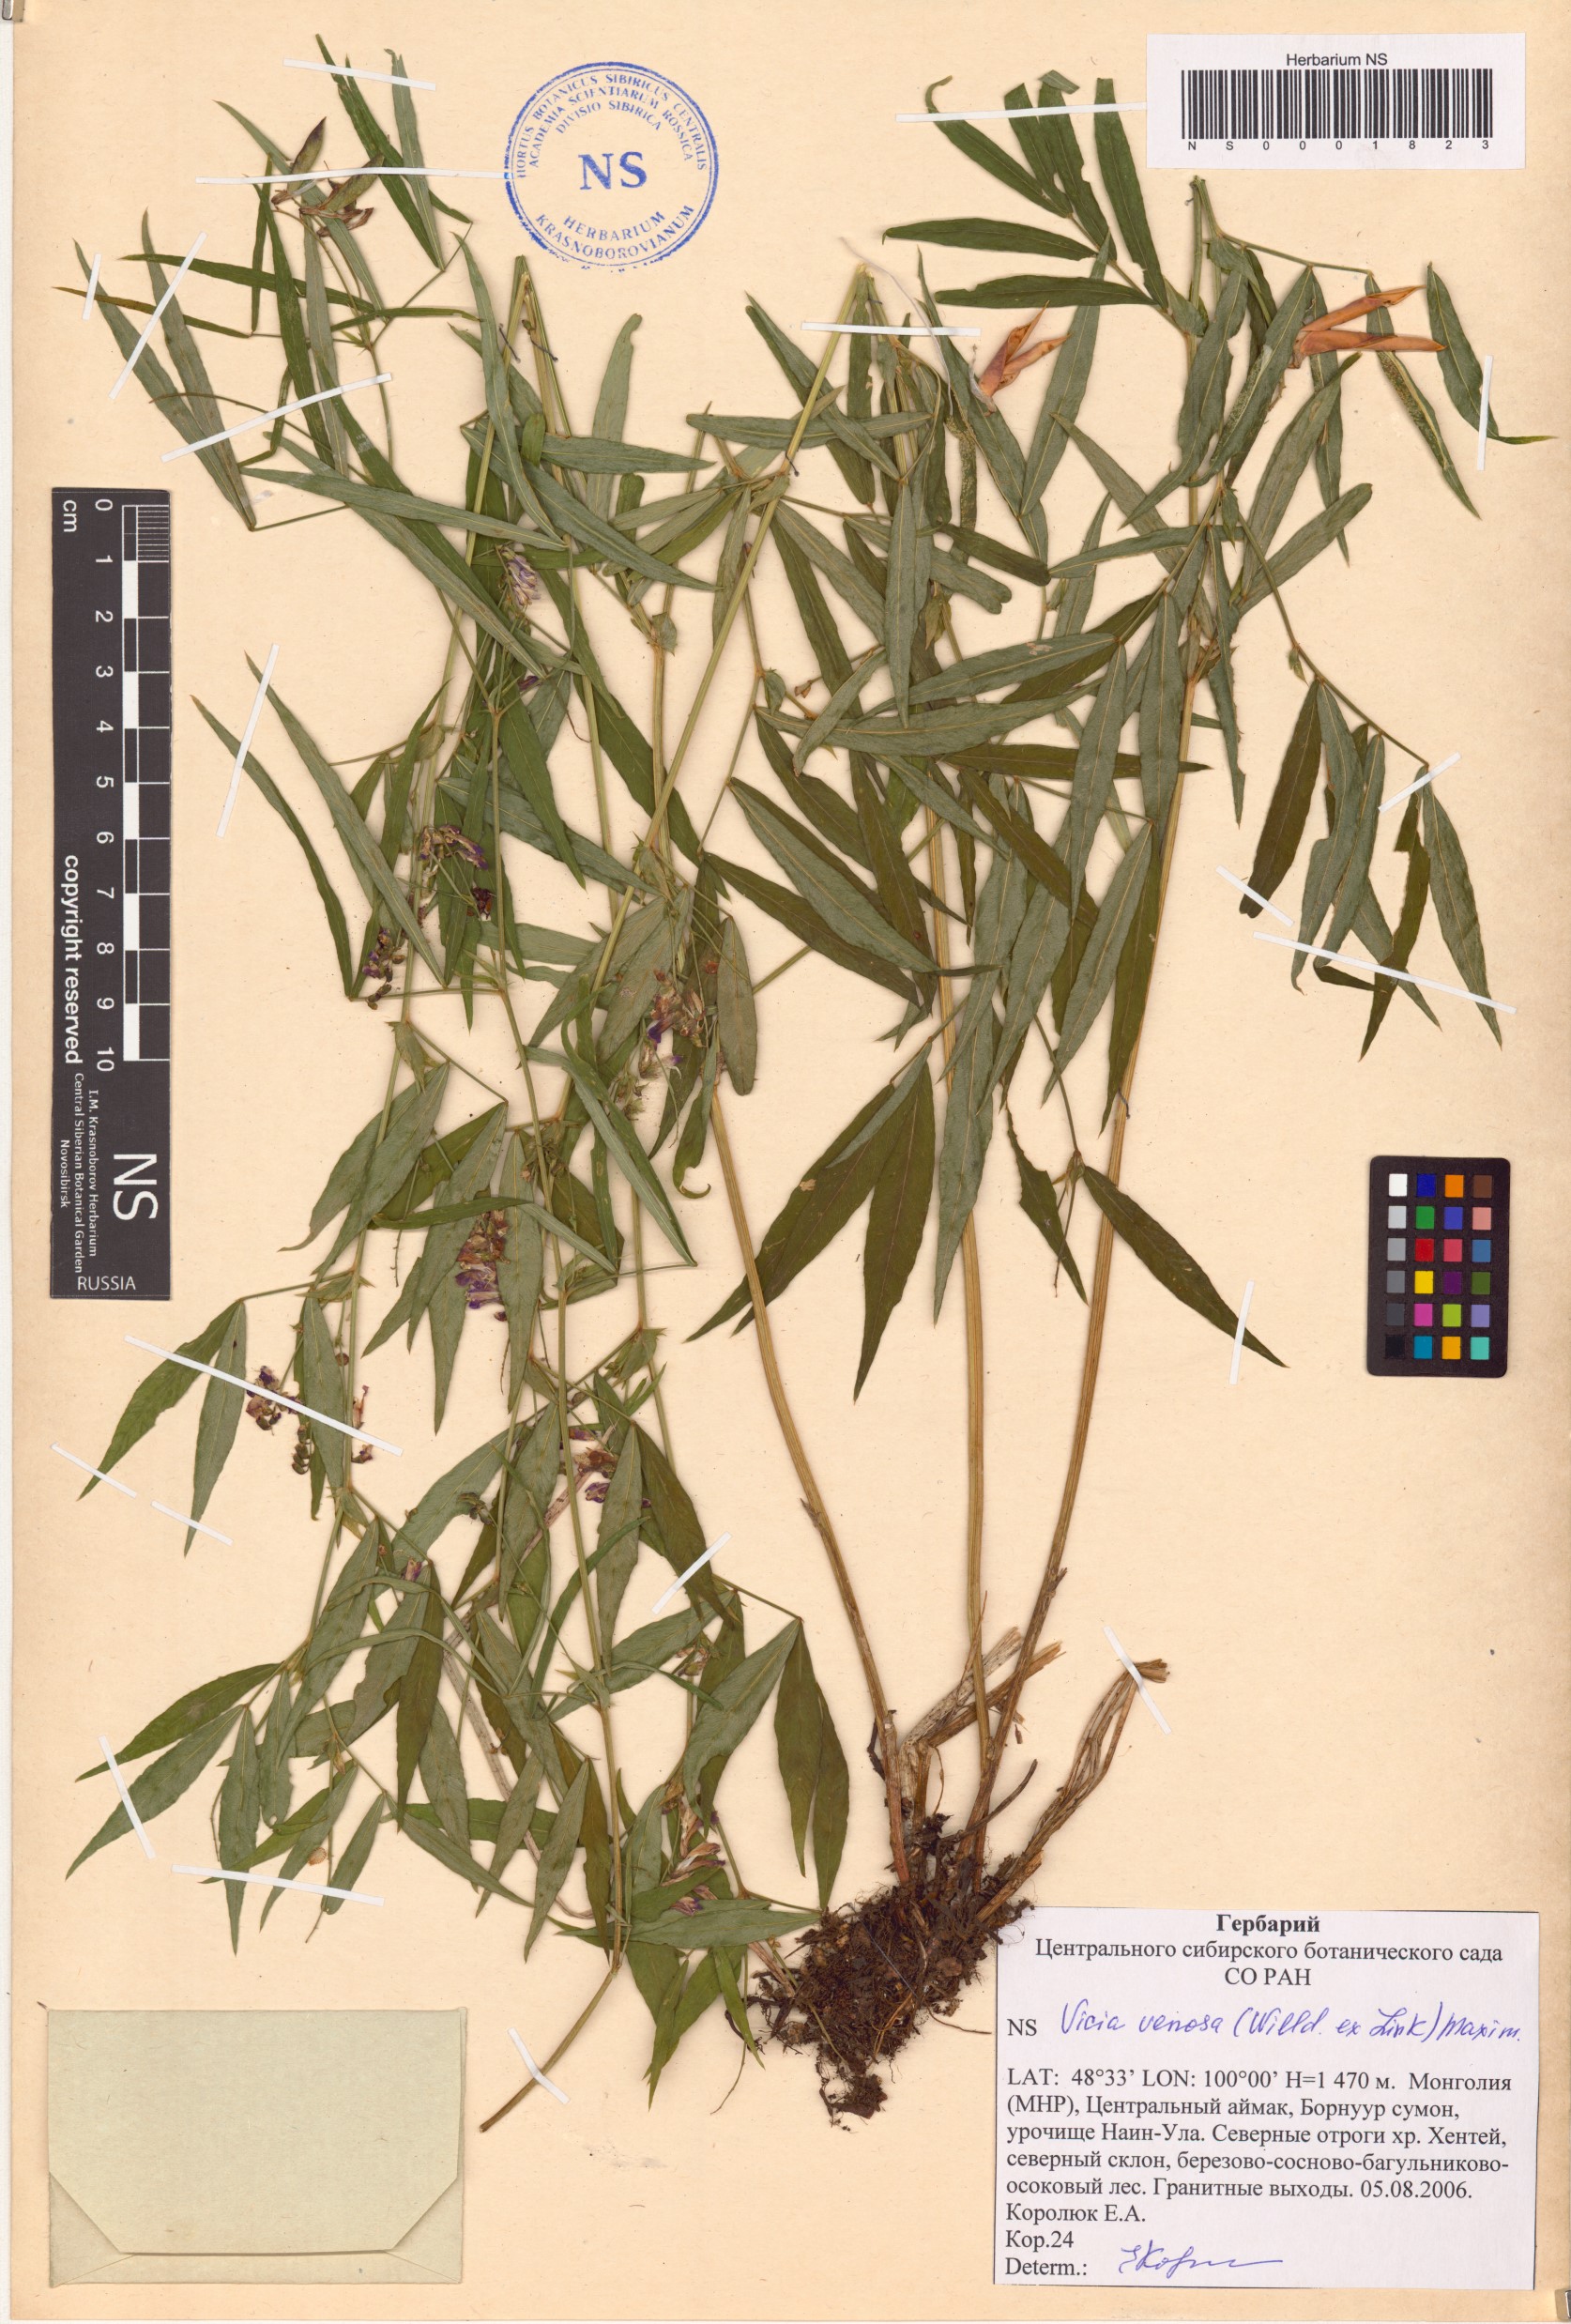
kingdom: Plantae
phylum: Tracheophyta
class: Magnoliopsida
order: Fabales
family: Fabaceae
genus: Vicia
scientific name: Vicia venosa
